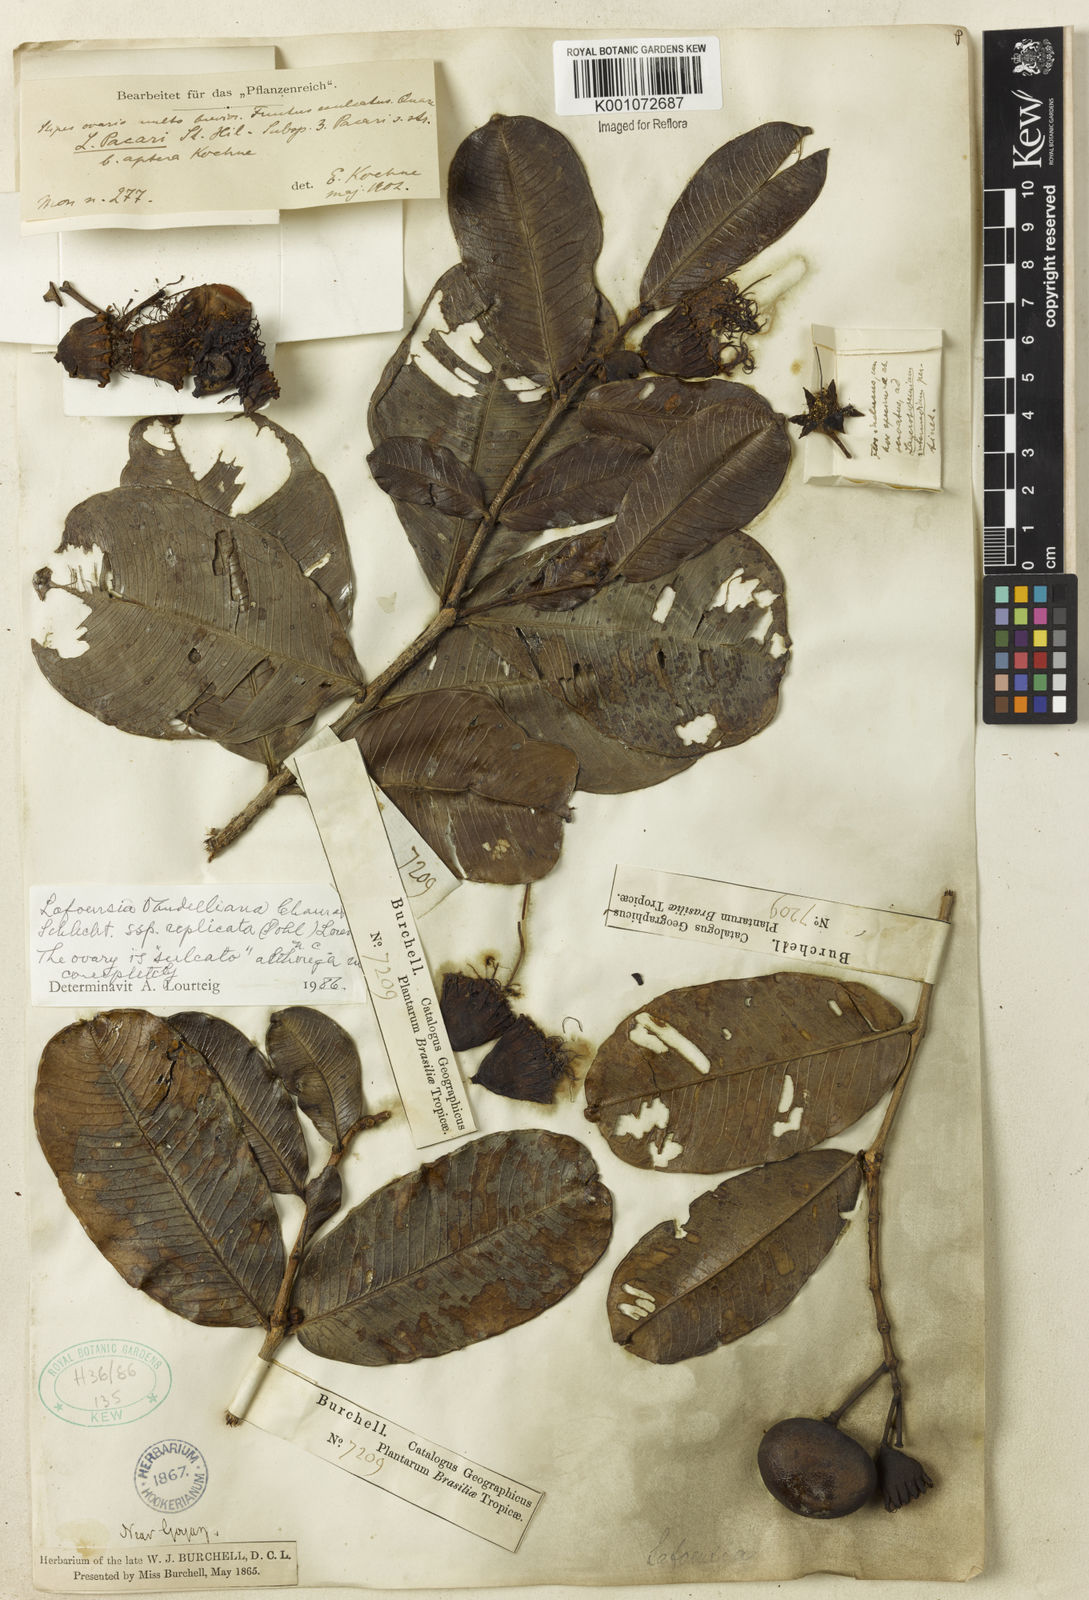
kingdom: Plantae
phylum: Tracheophyta
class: Magnoliopsida
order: Myrtales
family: Lythraceae
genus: Lafoensia
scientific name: Lafoensia vandelliana
